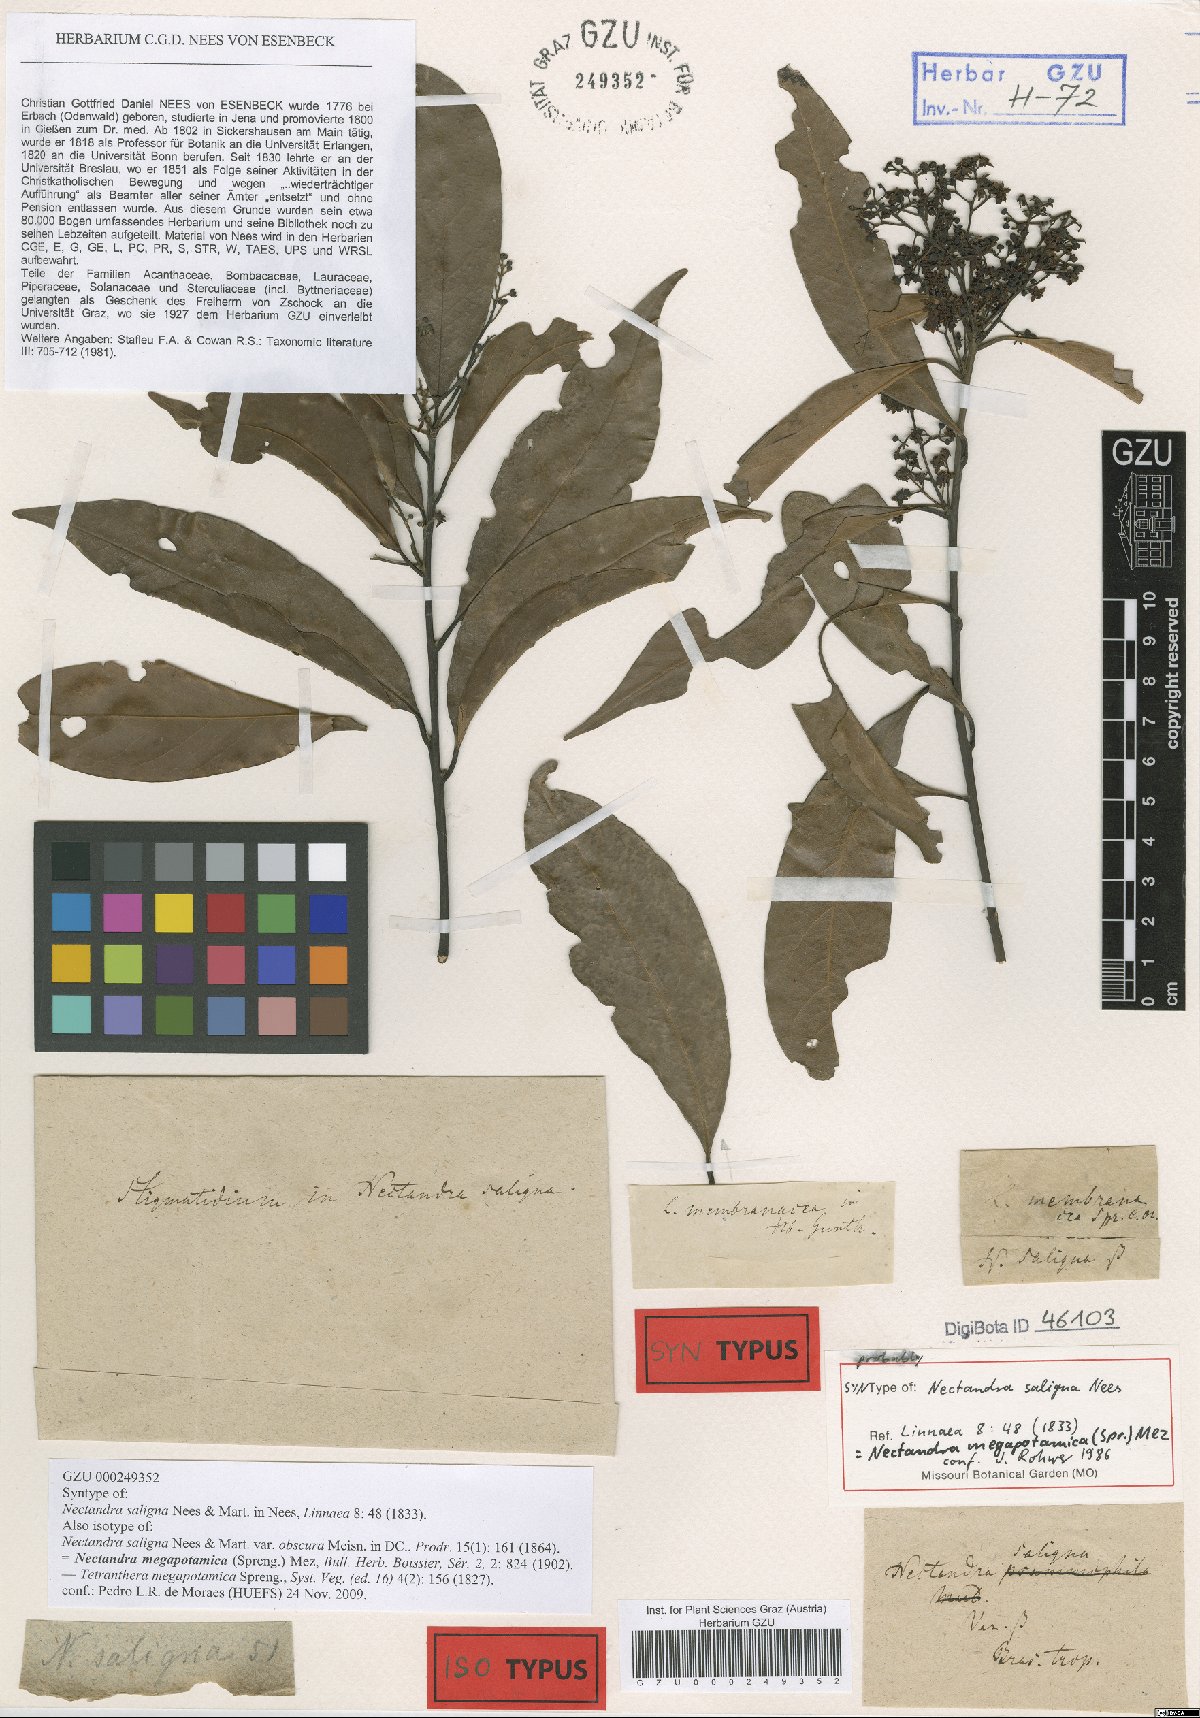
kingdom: Plantae
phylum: Tracheophyta
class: Magnoliopsida
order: Laurales
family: Lauraceae
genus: Nectandra
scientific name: Nectandra megapotamica
